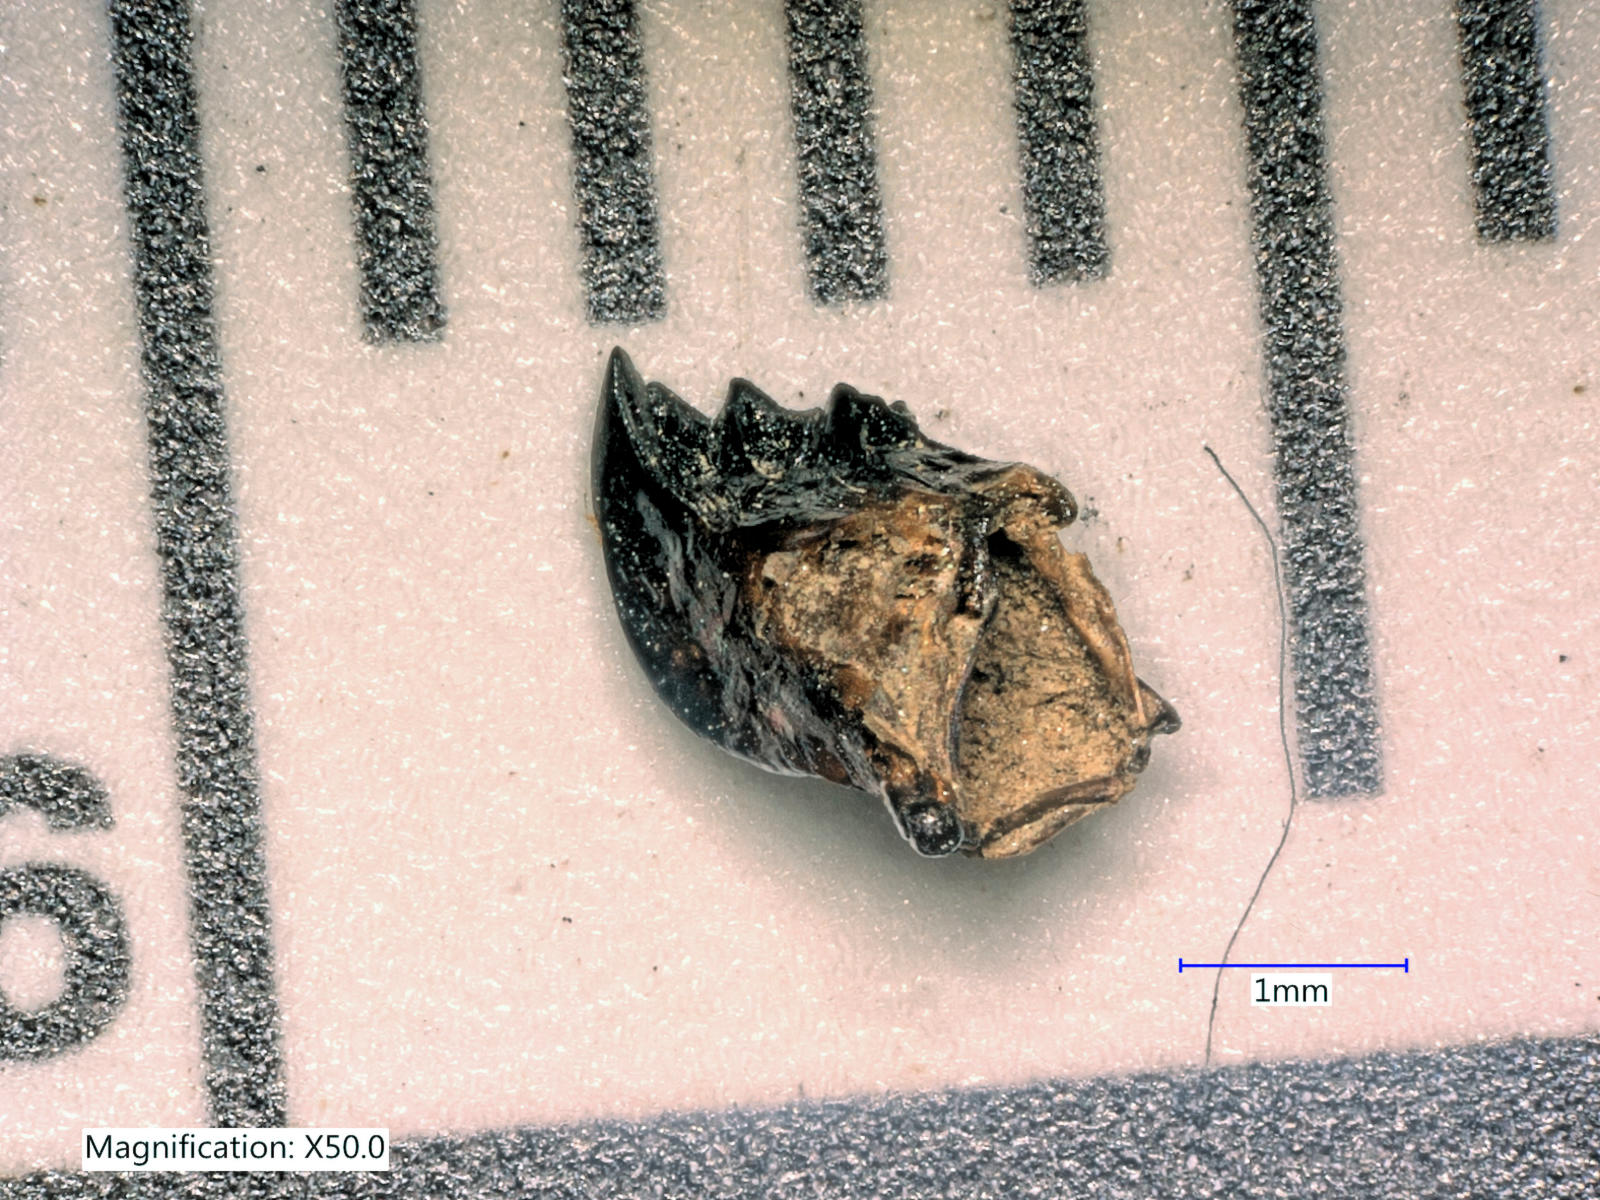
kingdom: Animalia
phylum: Arthropoda
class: Insecta
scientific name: Insecta
